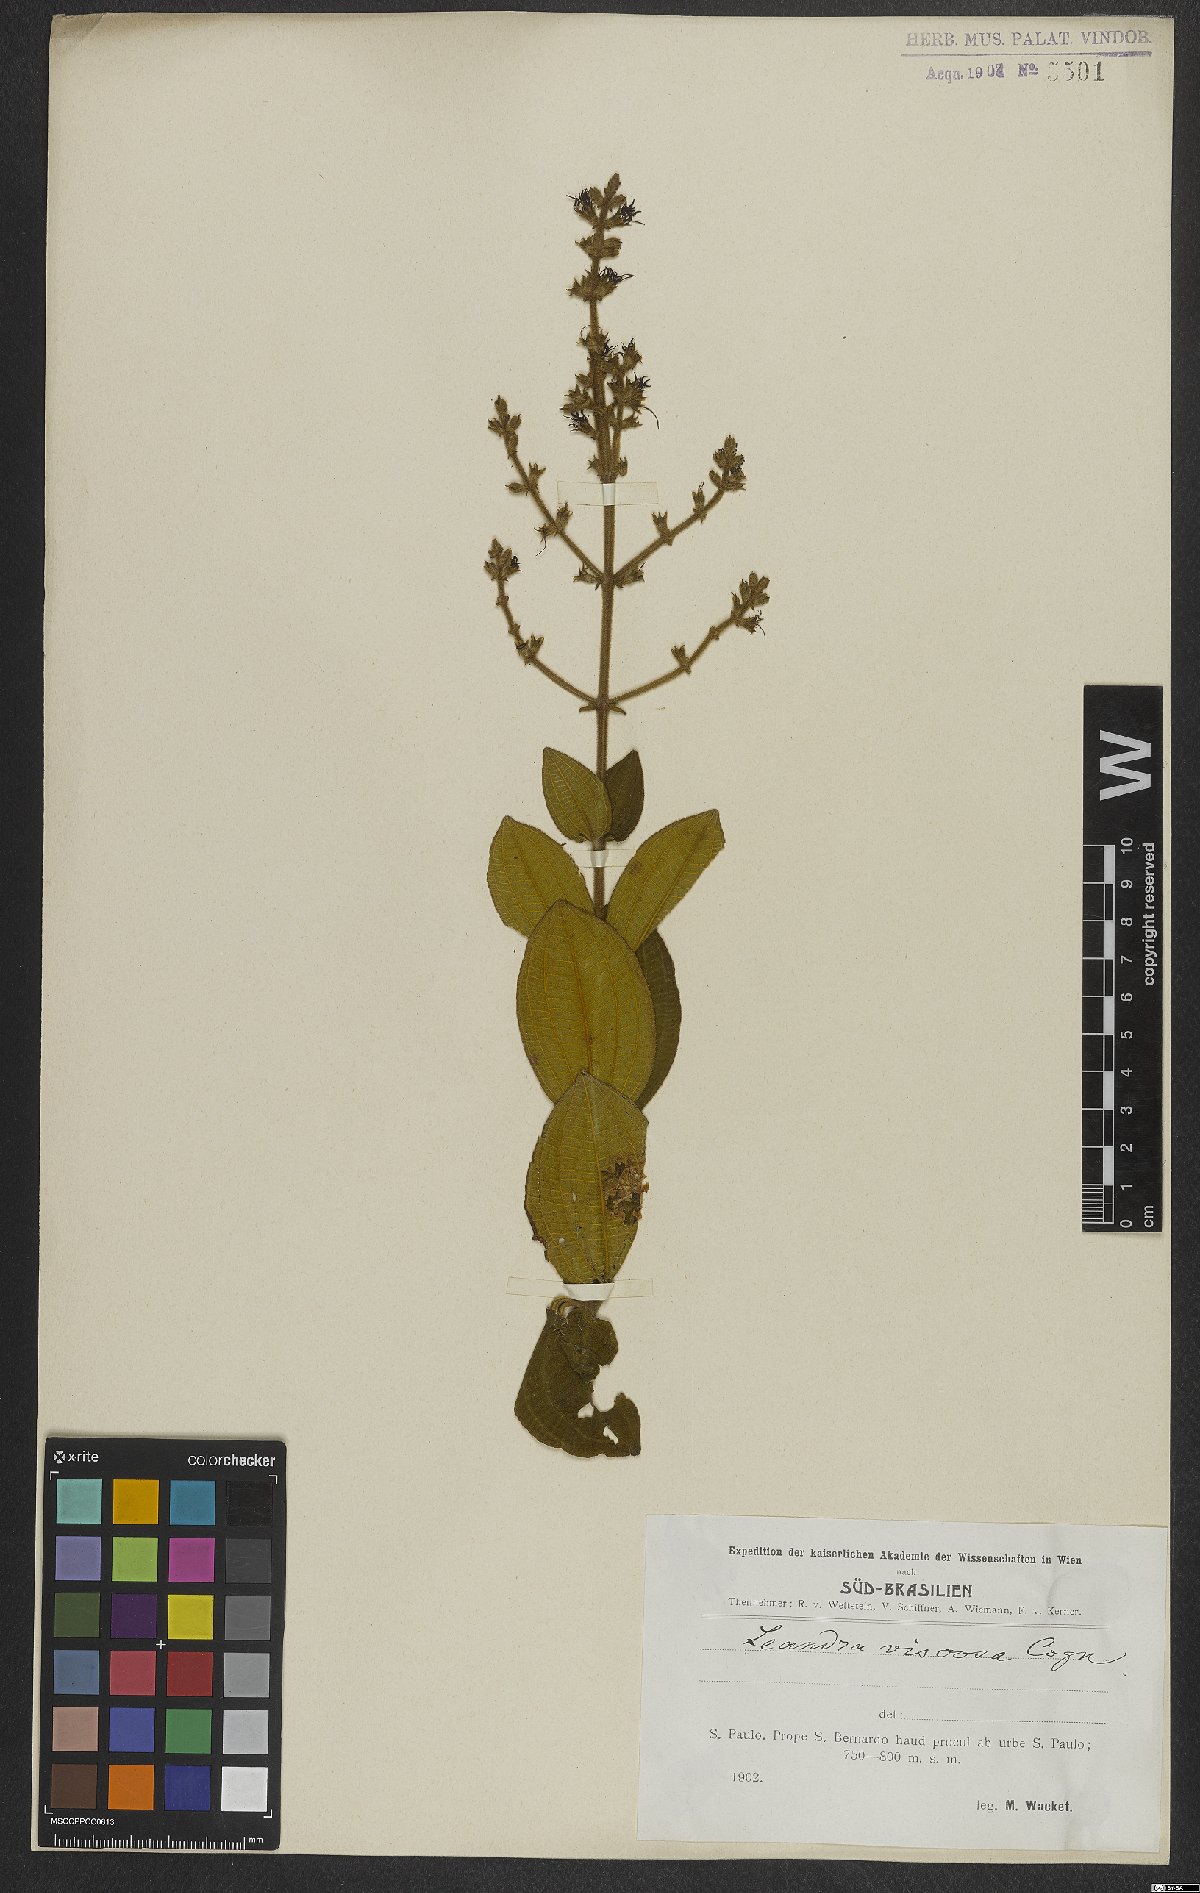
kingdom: Plantae
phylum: Tracheophyta
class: Magnoliopsida
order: Myrtales
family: Melastomataceae
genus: Miconia
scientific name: Miconia viscosa
